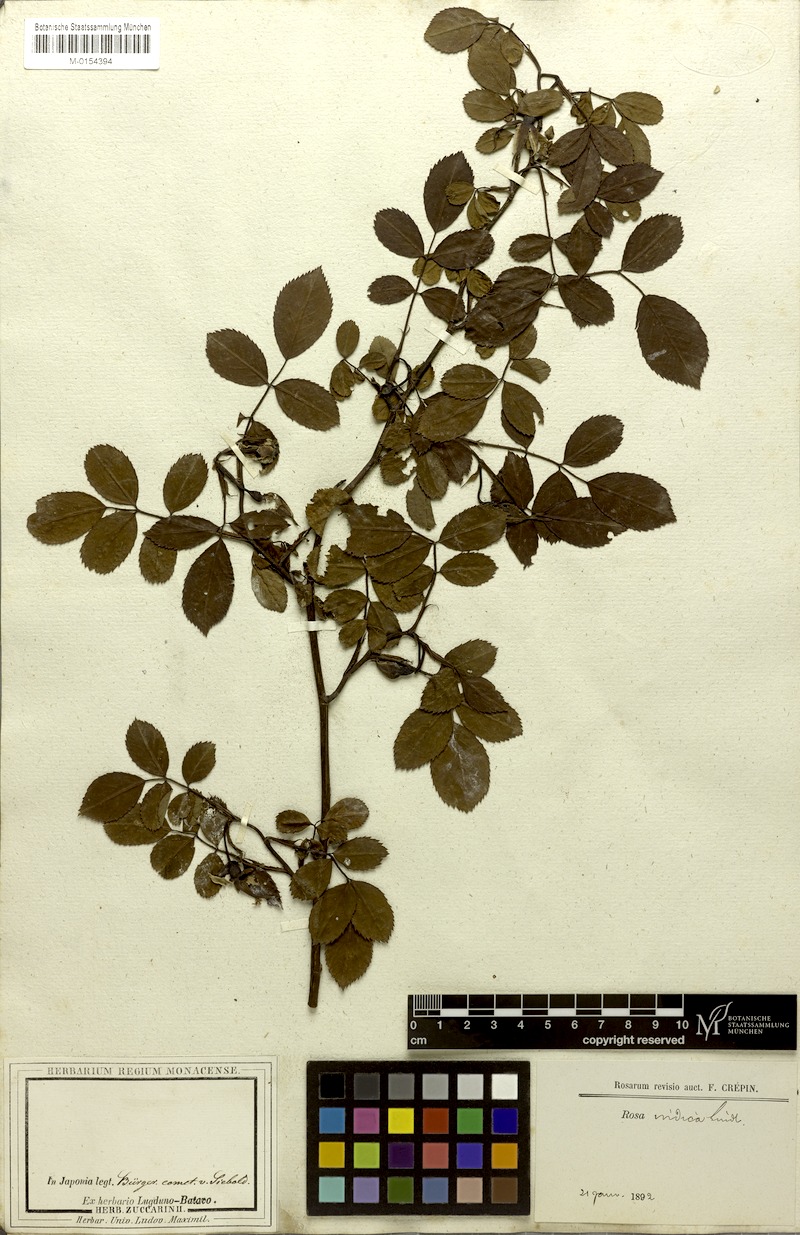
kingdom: Plantae
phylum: Tracheophyta
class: Magnoliopsida
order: Rosales
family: Rosaceae
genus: Rosa
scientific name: Rosa indica
